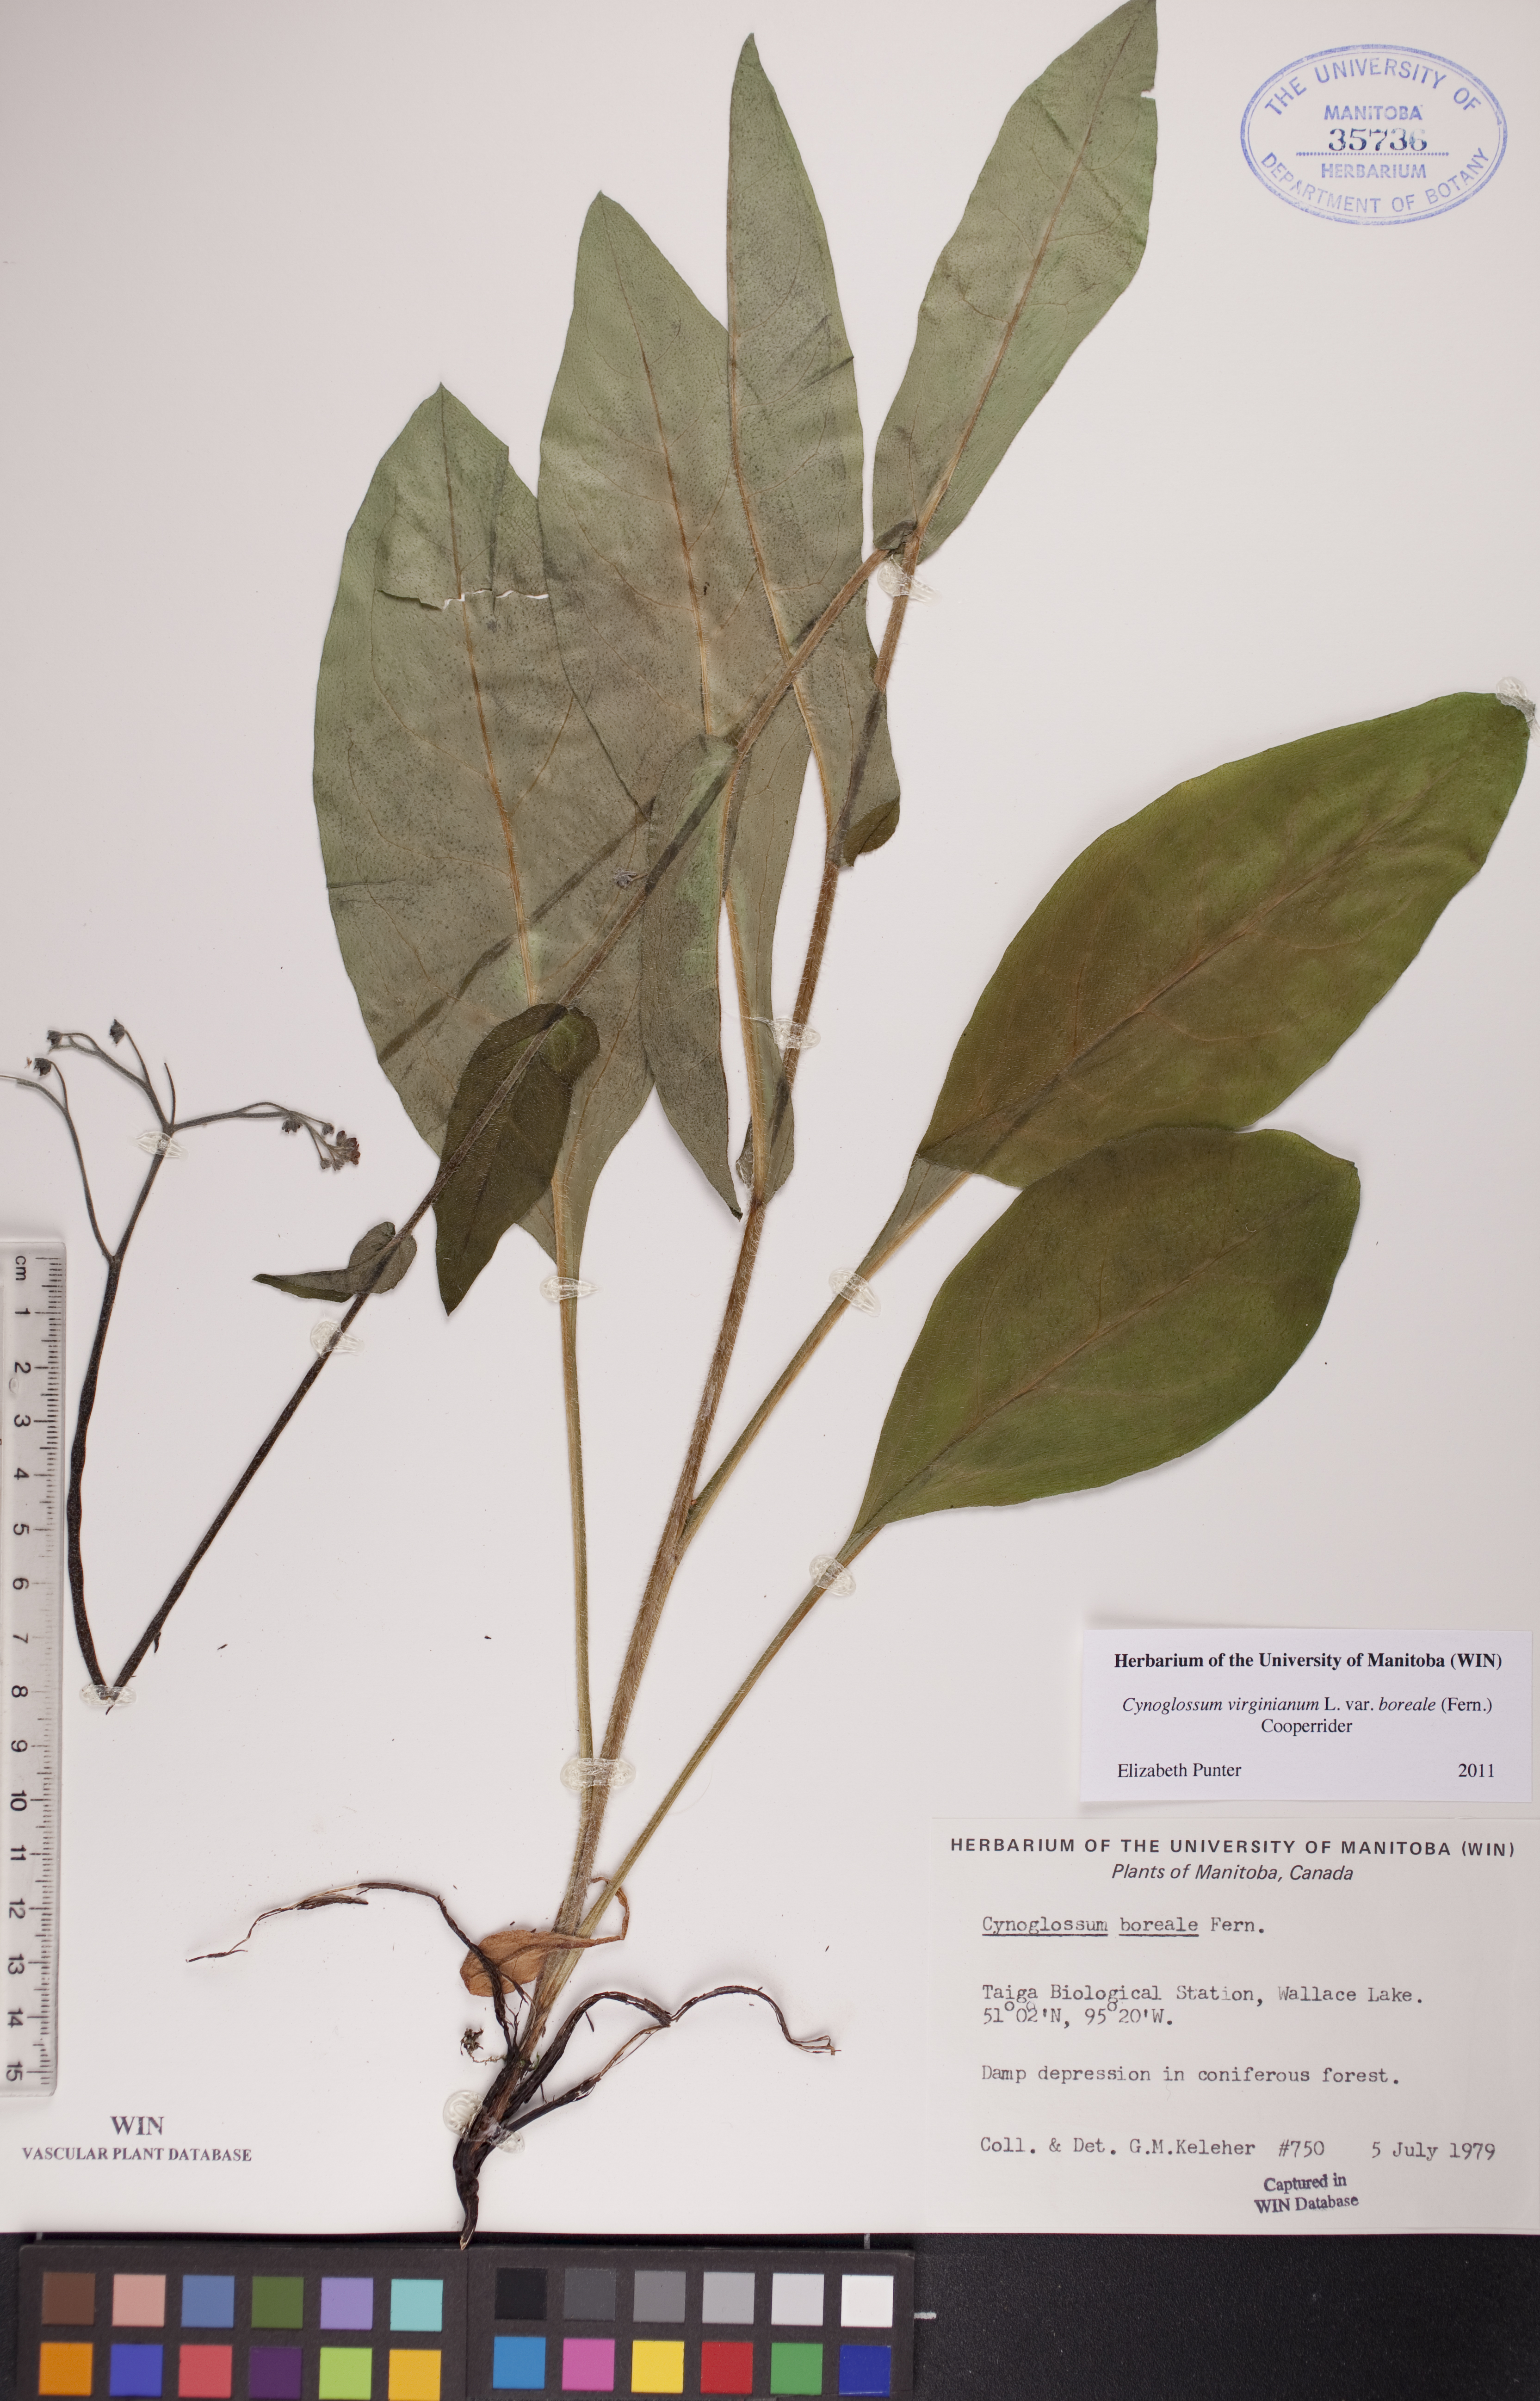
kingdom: Plantae
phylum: Tracheophyta
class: Magnoliopsida
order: Boraginales
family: Boraginaceae
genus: Andersonglossum
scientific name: Andersonglossum boreale
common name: Northern hound's-tongue
